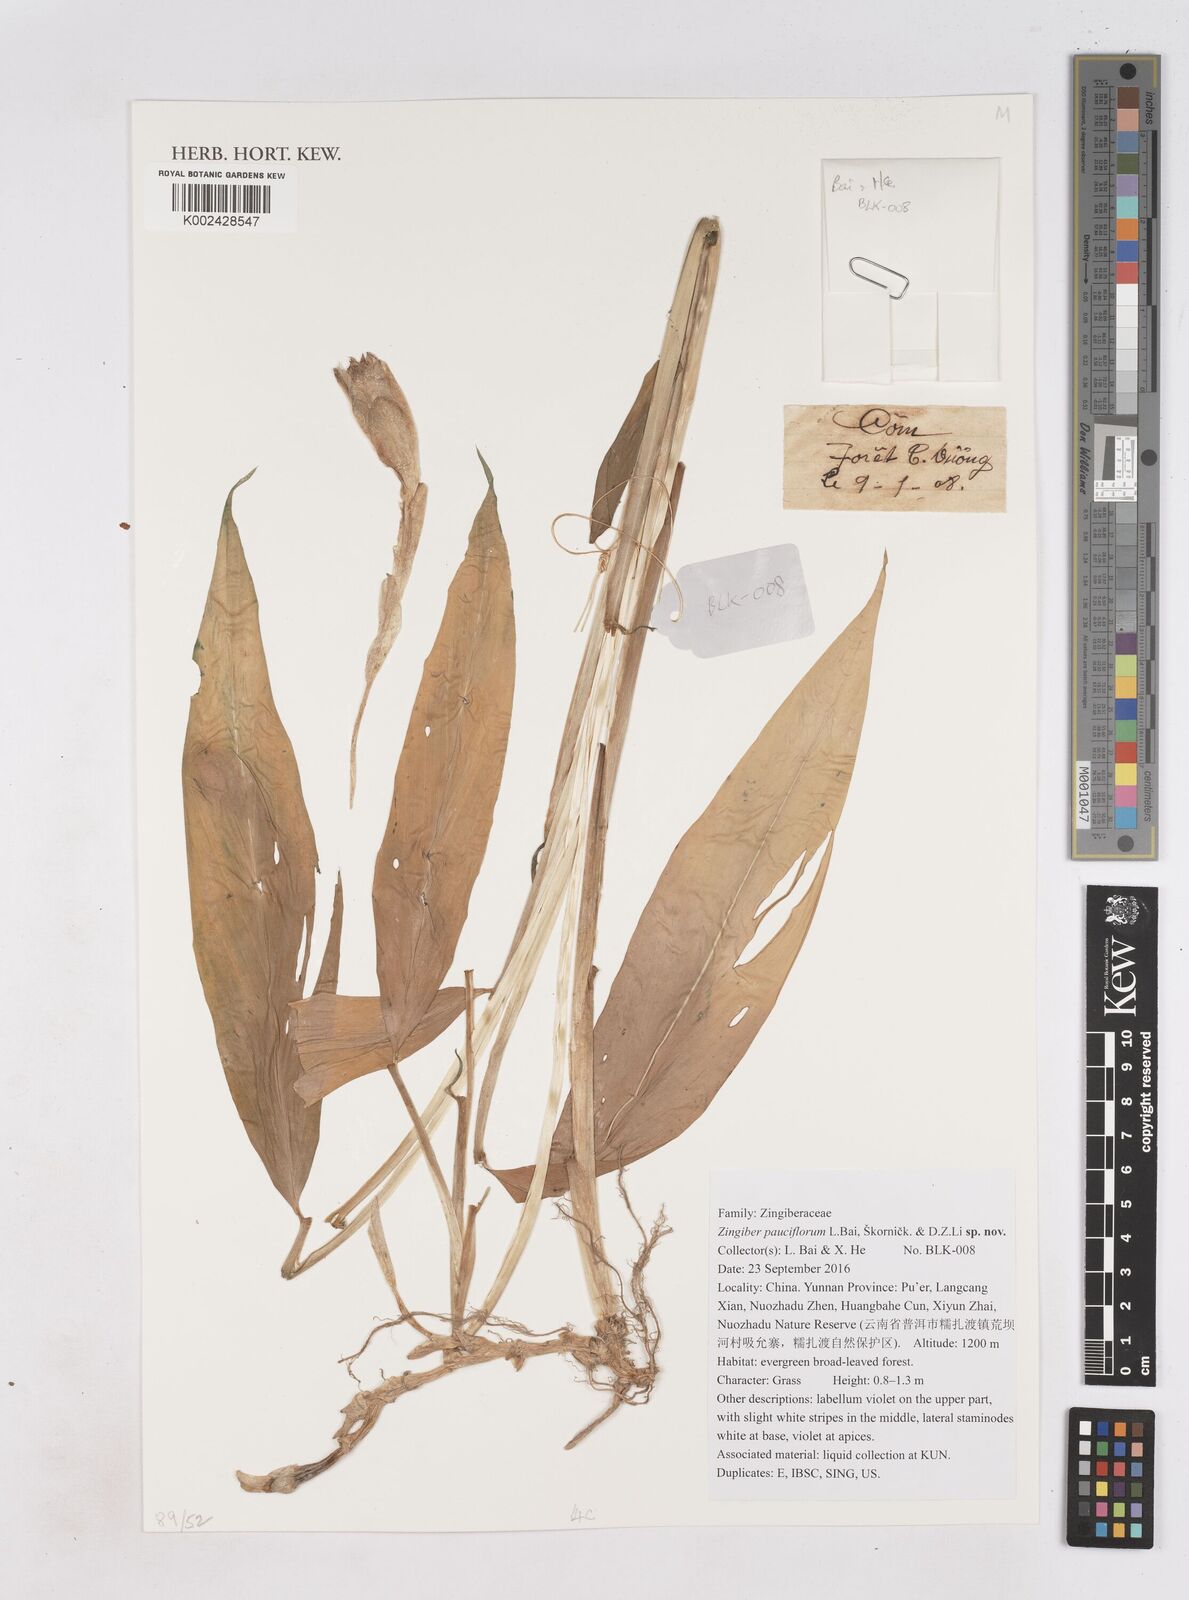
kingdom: Plantae
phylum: Tracheophyta
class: Liliopsida
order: Zingiberales
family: Zingiberaceae
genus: Zingiber
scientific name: Zingiber pauciflorum
